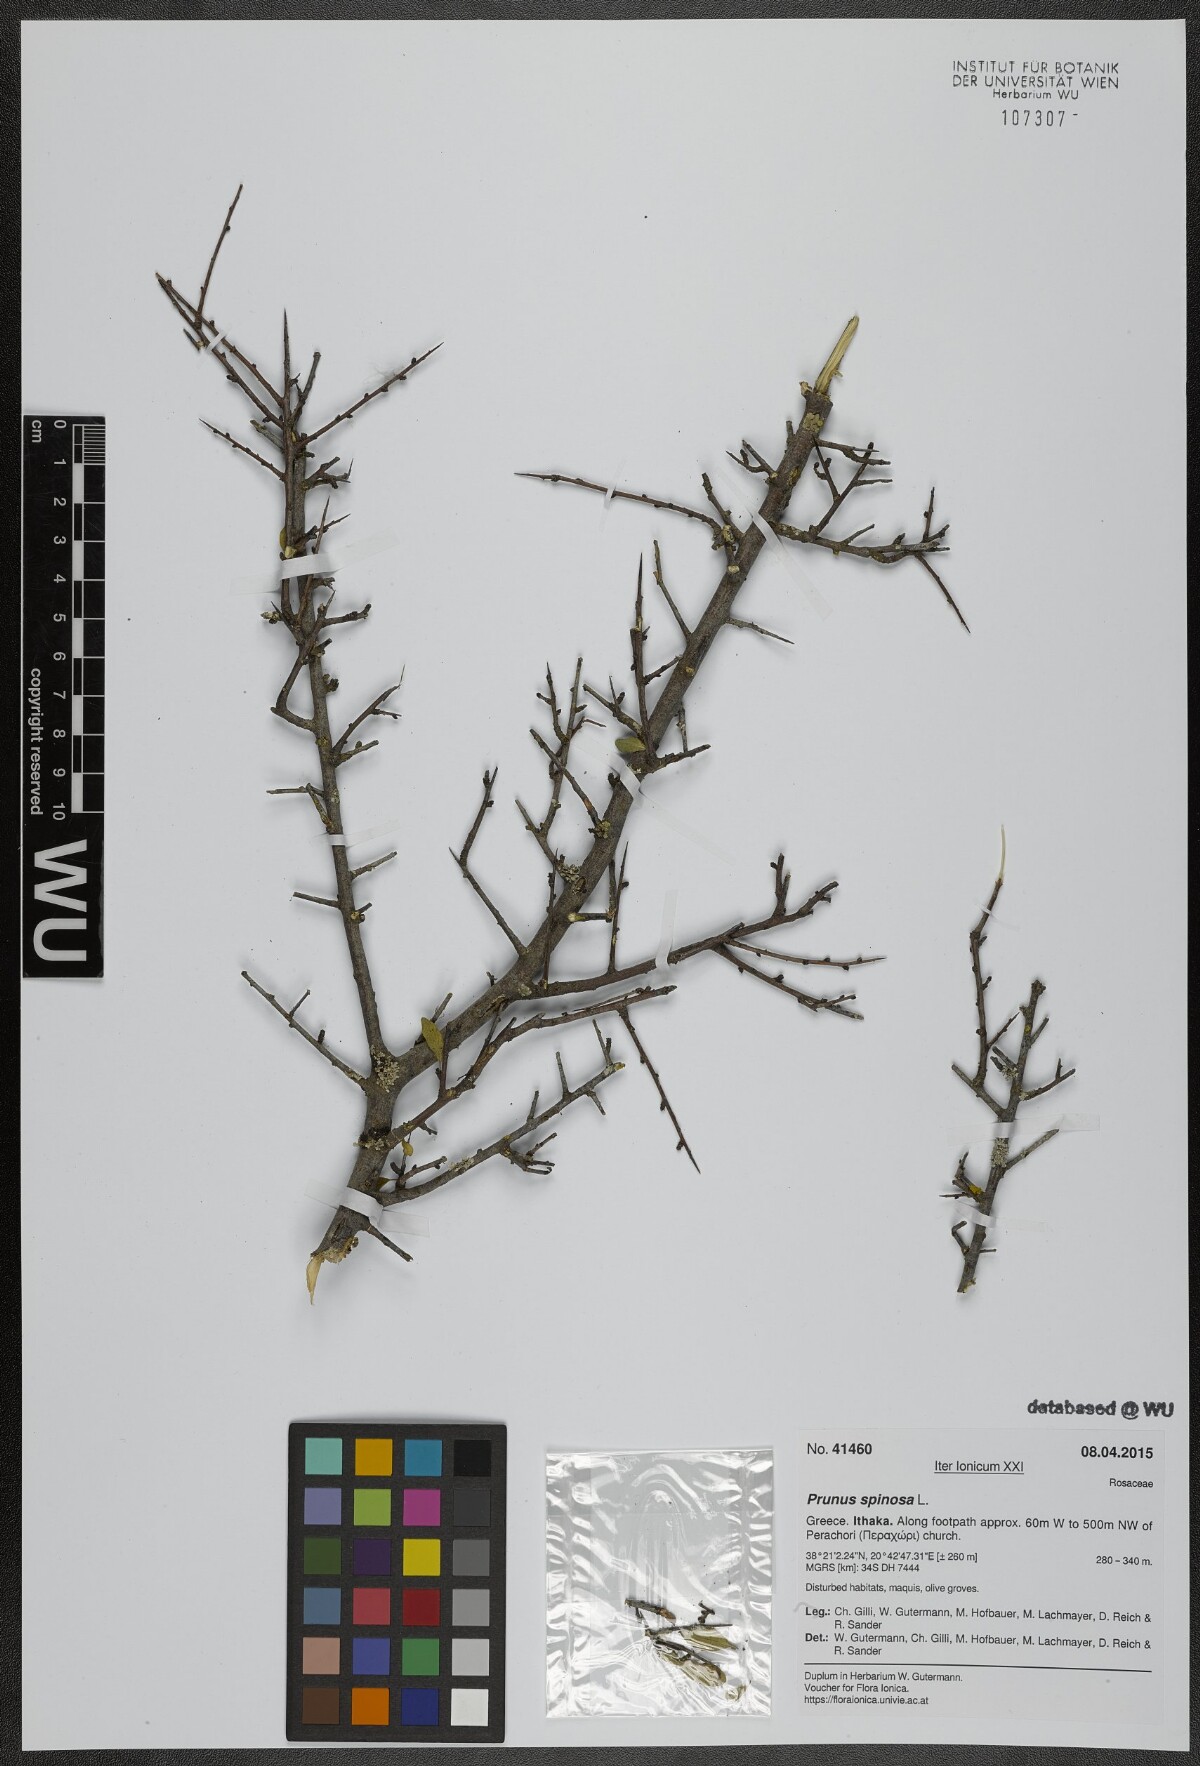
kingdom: Plantae
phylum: Tracheophyta
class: Magnoliopsida
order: Rosales
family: Rosaceae
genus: Prunus
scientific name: Prunus spinosa
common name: Blackthorn
